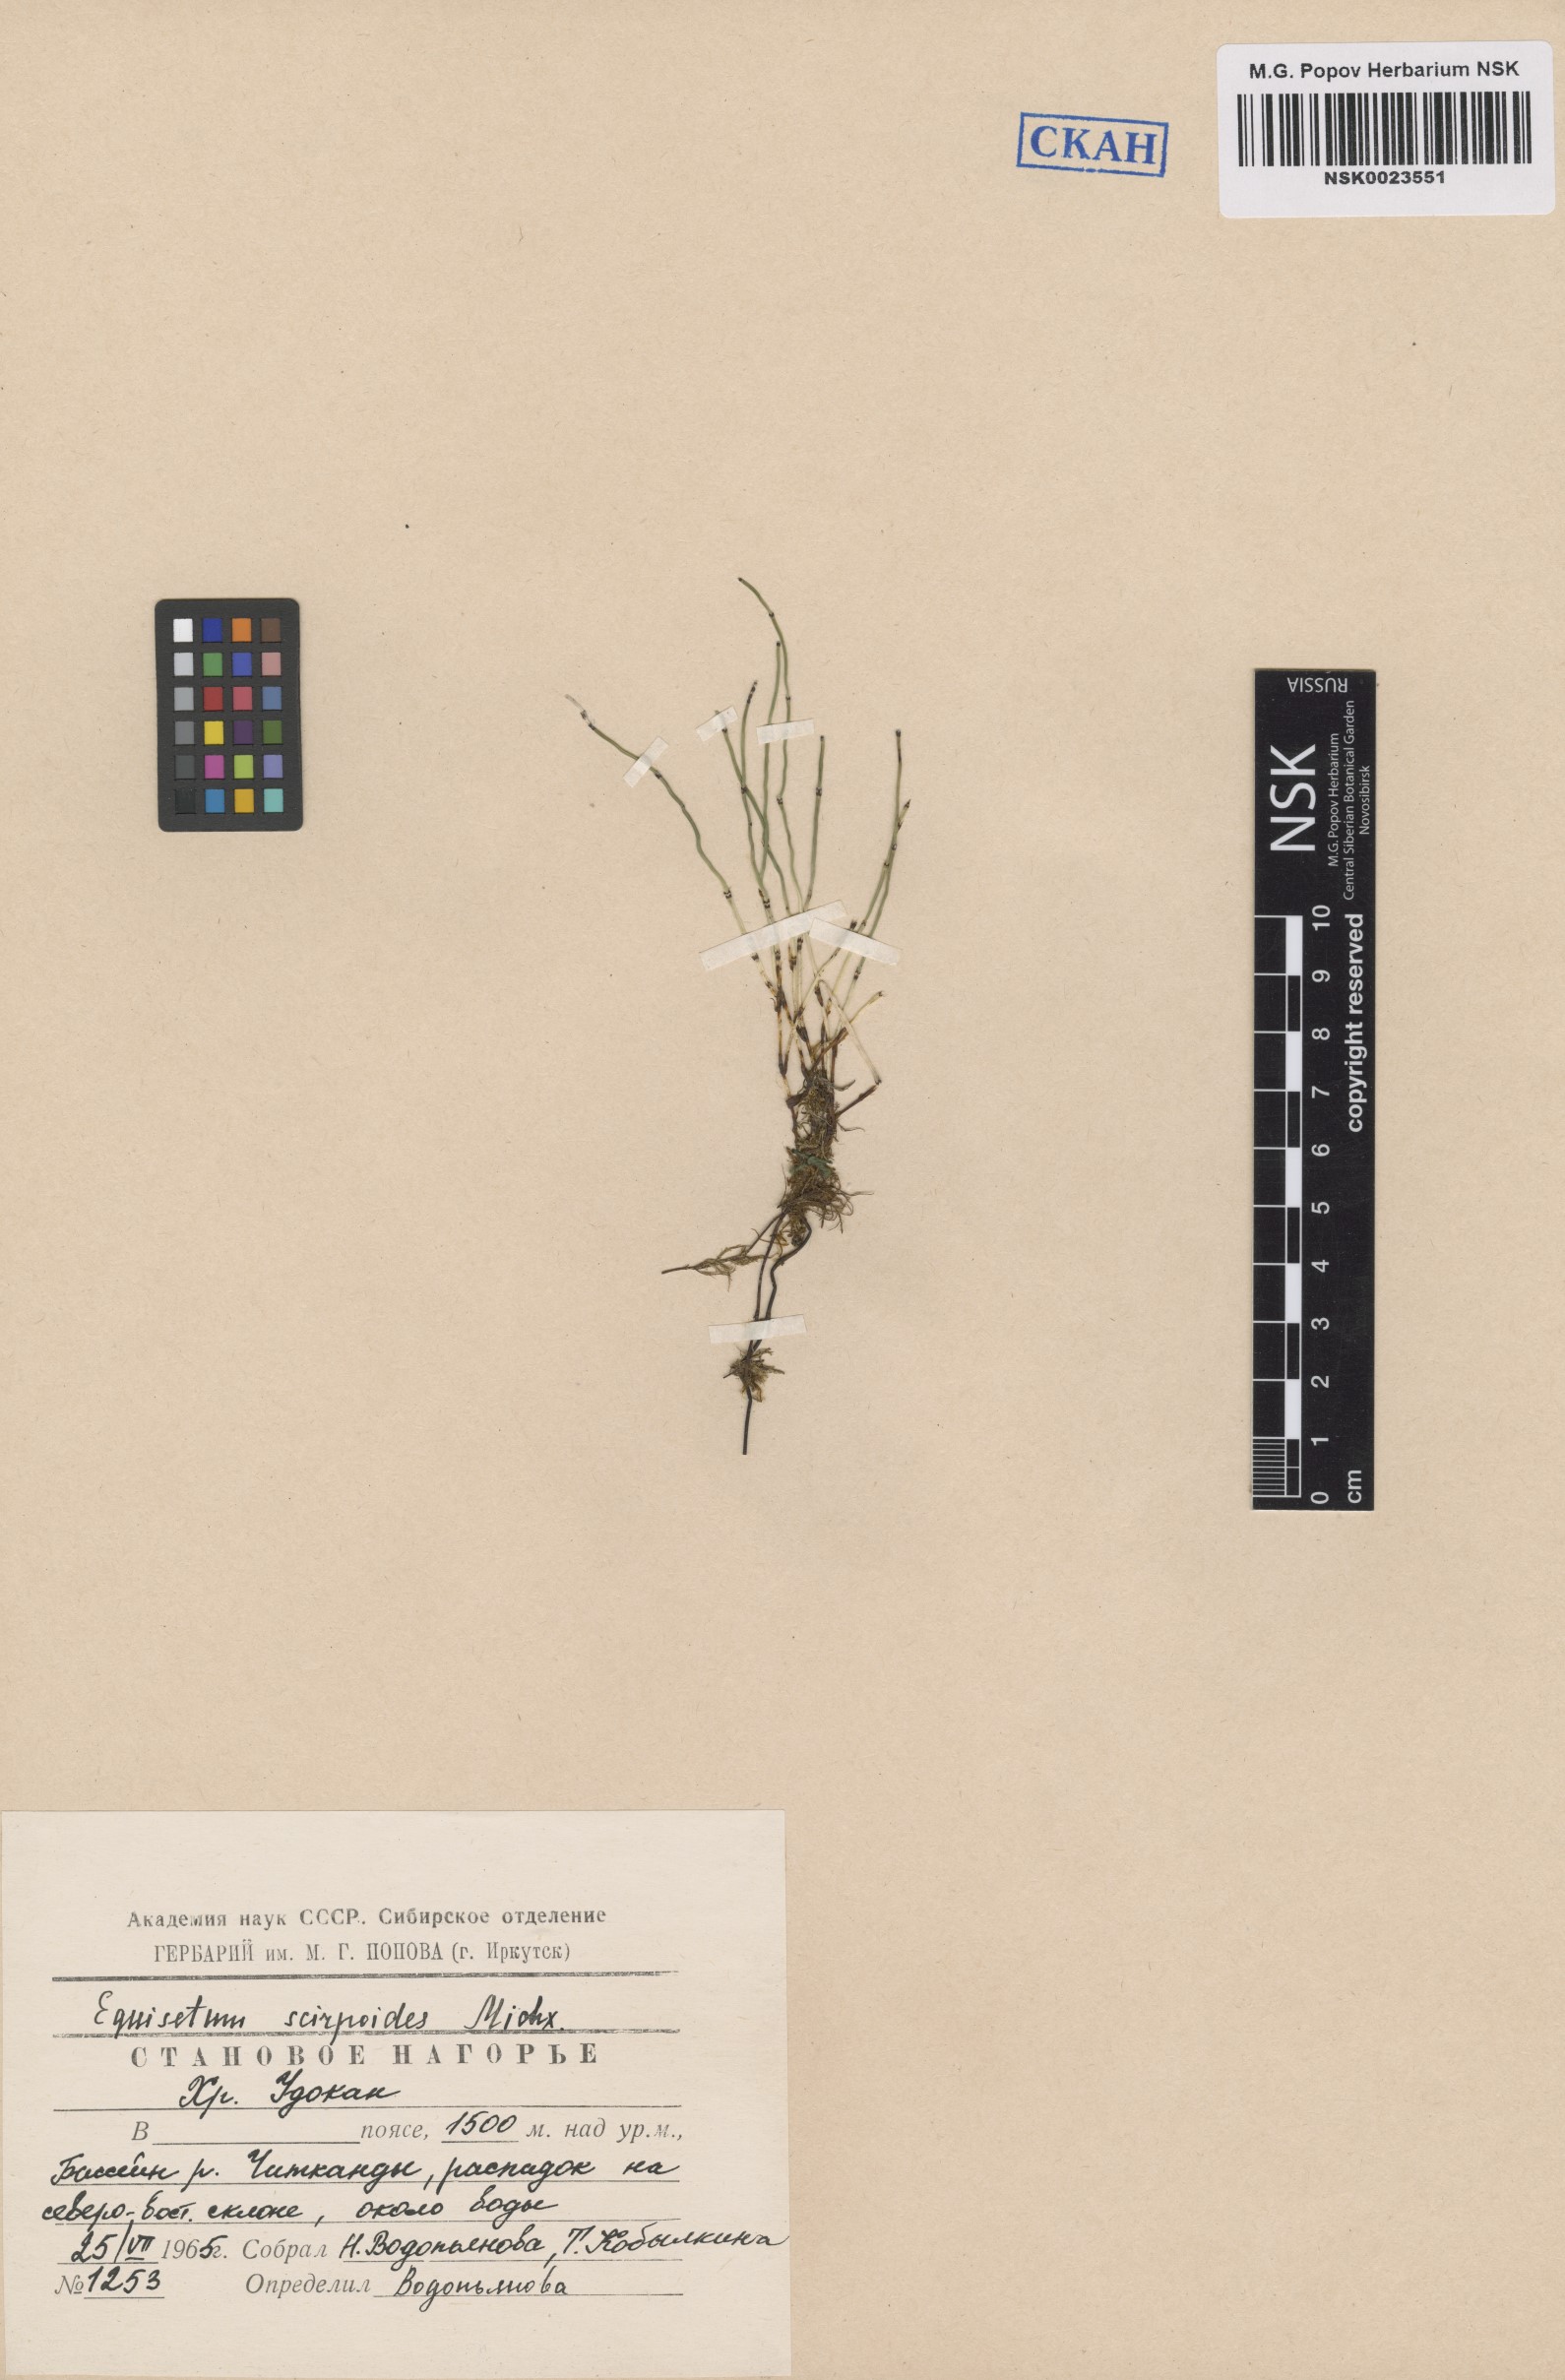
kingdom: Plantae
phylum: Tracheophyta
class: Polypodiopsida
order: Equisetales
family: Equisetaceae
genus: Equisetum
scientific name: Equisetum scirpoides
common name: Delicate horsetail
